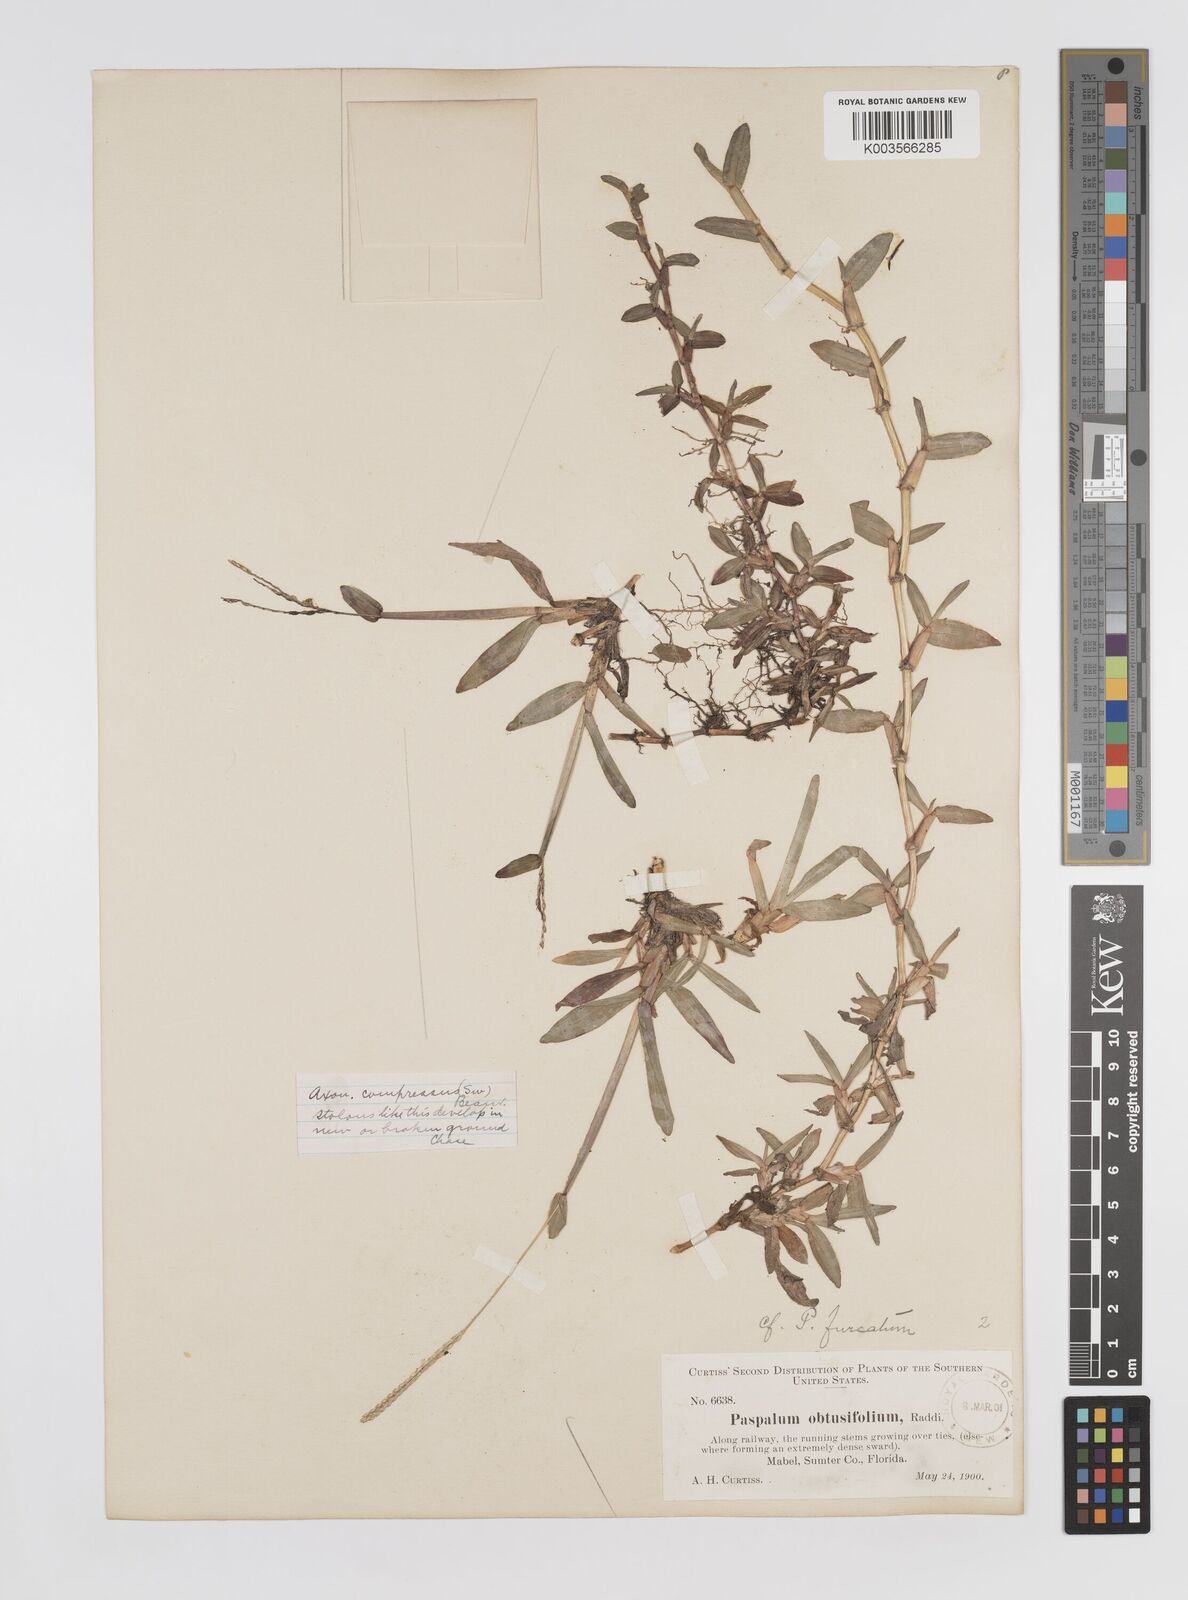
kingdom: Plantae
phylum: Tracheophyta
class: Liliopsida
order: Poales
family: Poaceae
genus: Axonopus
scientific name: Axonopus compressus
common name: American carpet grass
